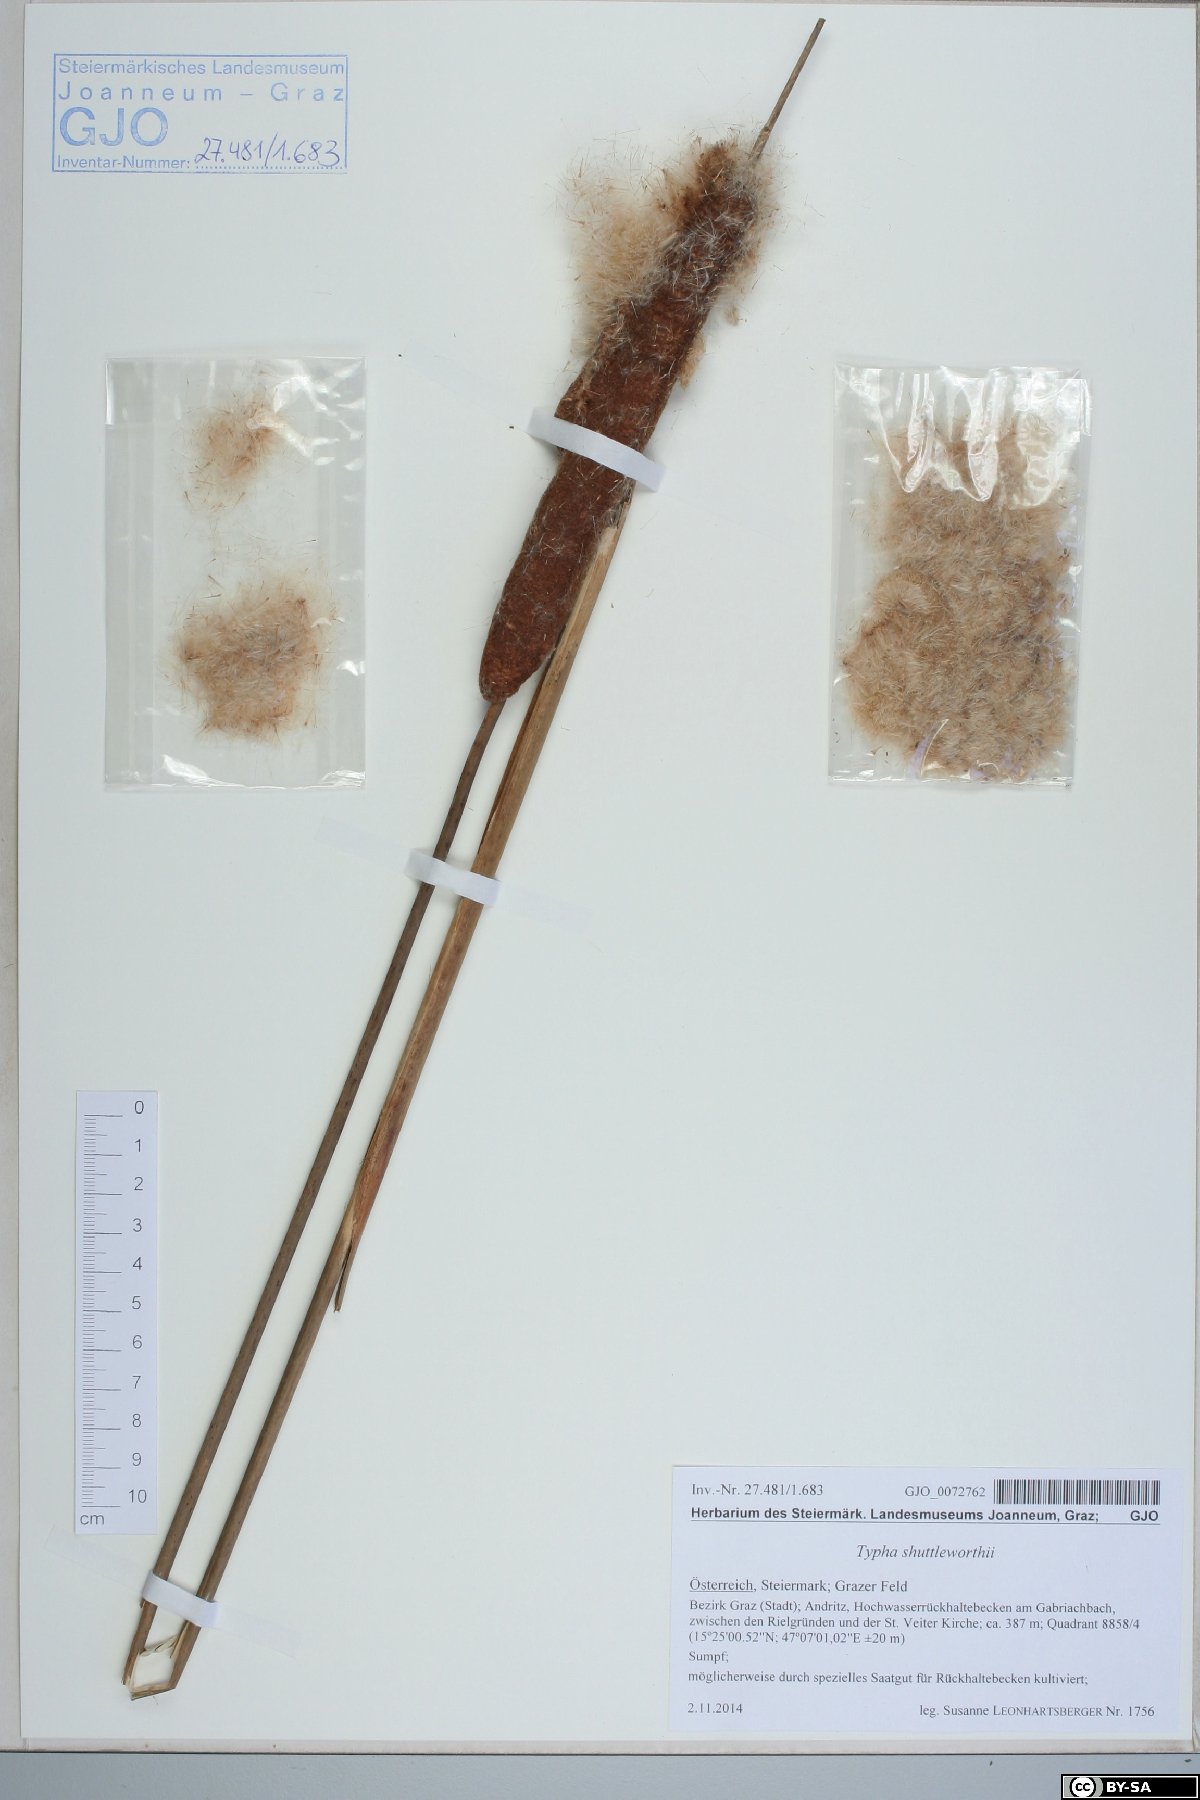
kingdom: Plantae
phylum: Tracheophyta
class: Liliopsida
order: Poales
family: Typhaceae
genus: Typha
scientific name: Typha latifolia
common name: Broadleaf cattail
